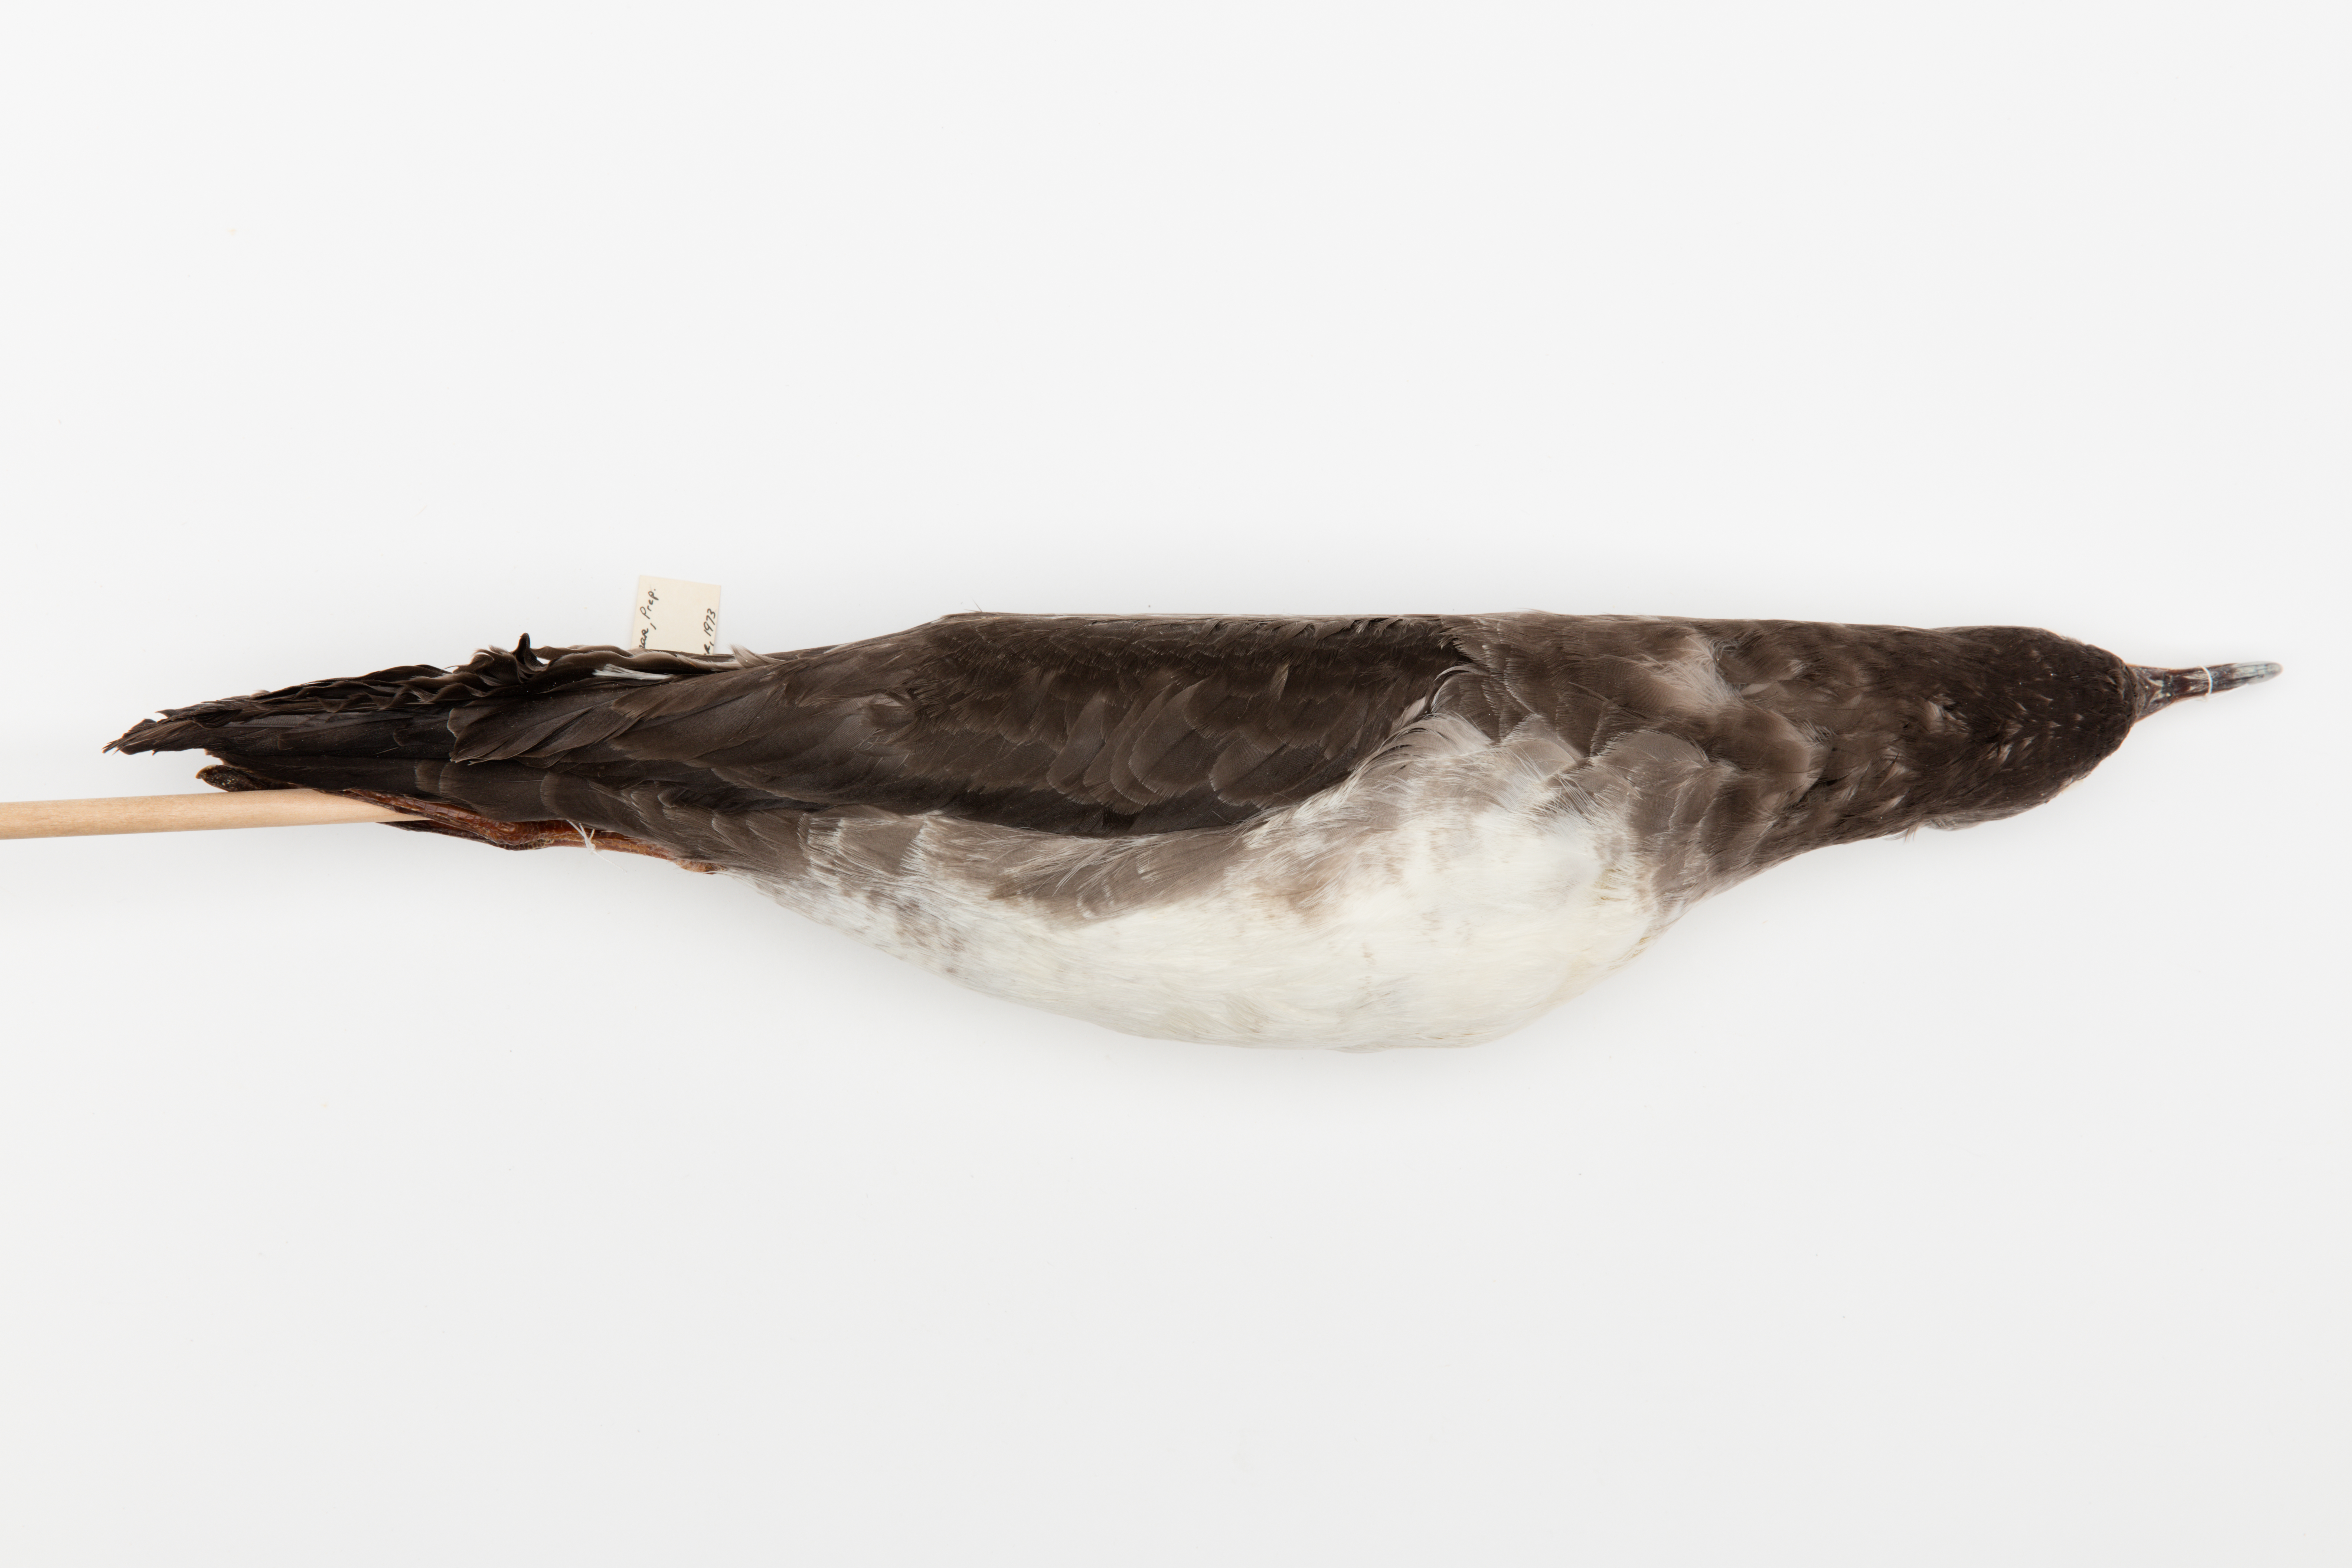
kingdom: Animalia
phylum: Chordata
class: Aves
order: Procellariiformes
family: Procellariidae
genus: Puffinus
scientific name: Puffinus creatopus
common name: Pink-footed shearwater
